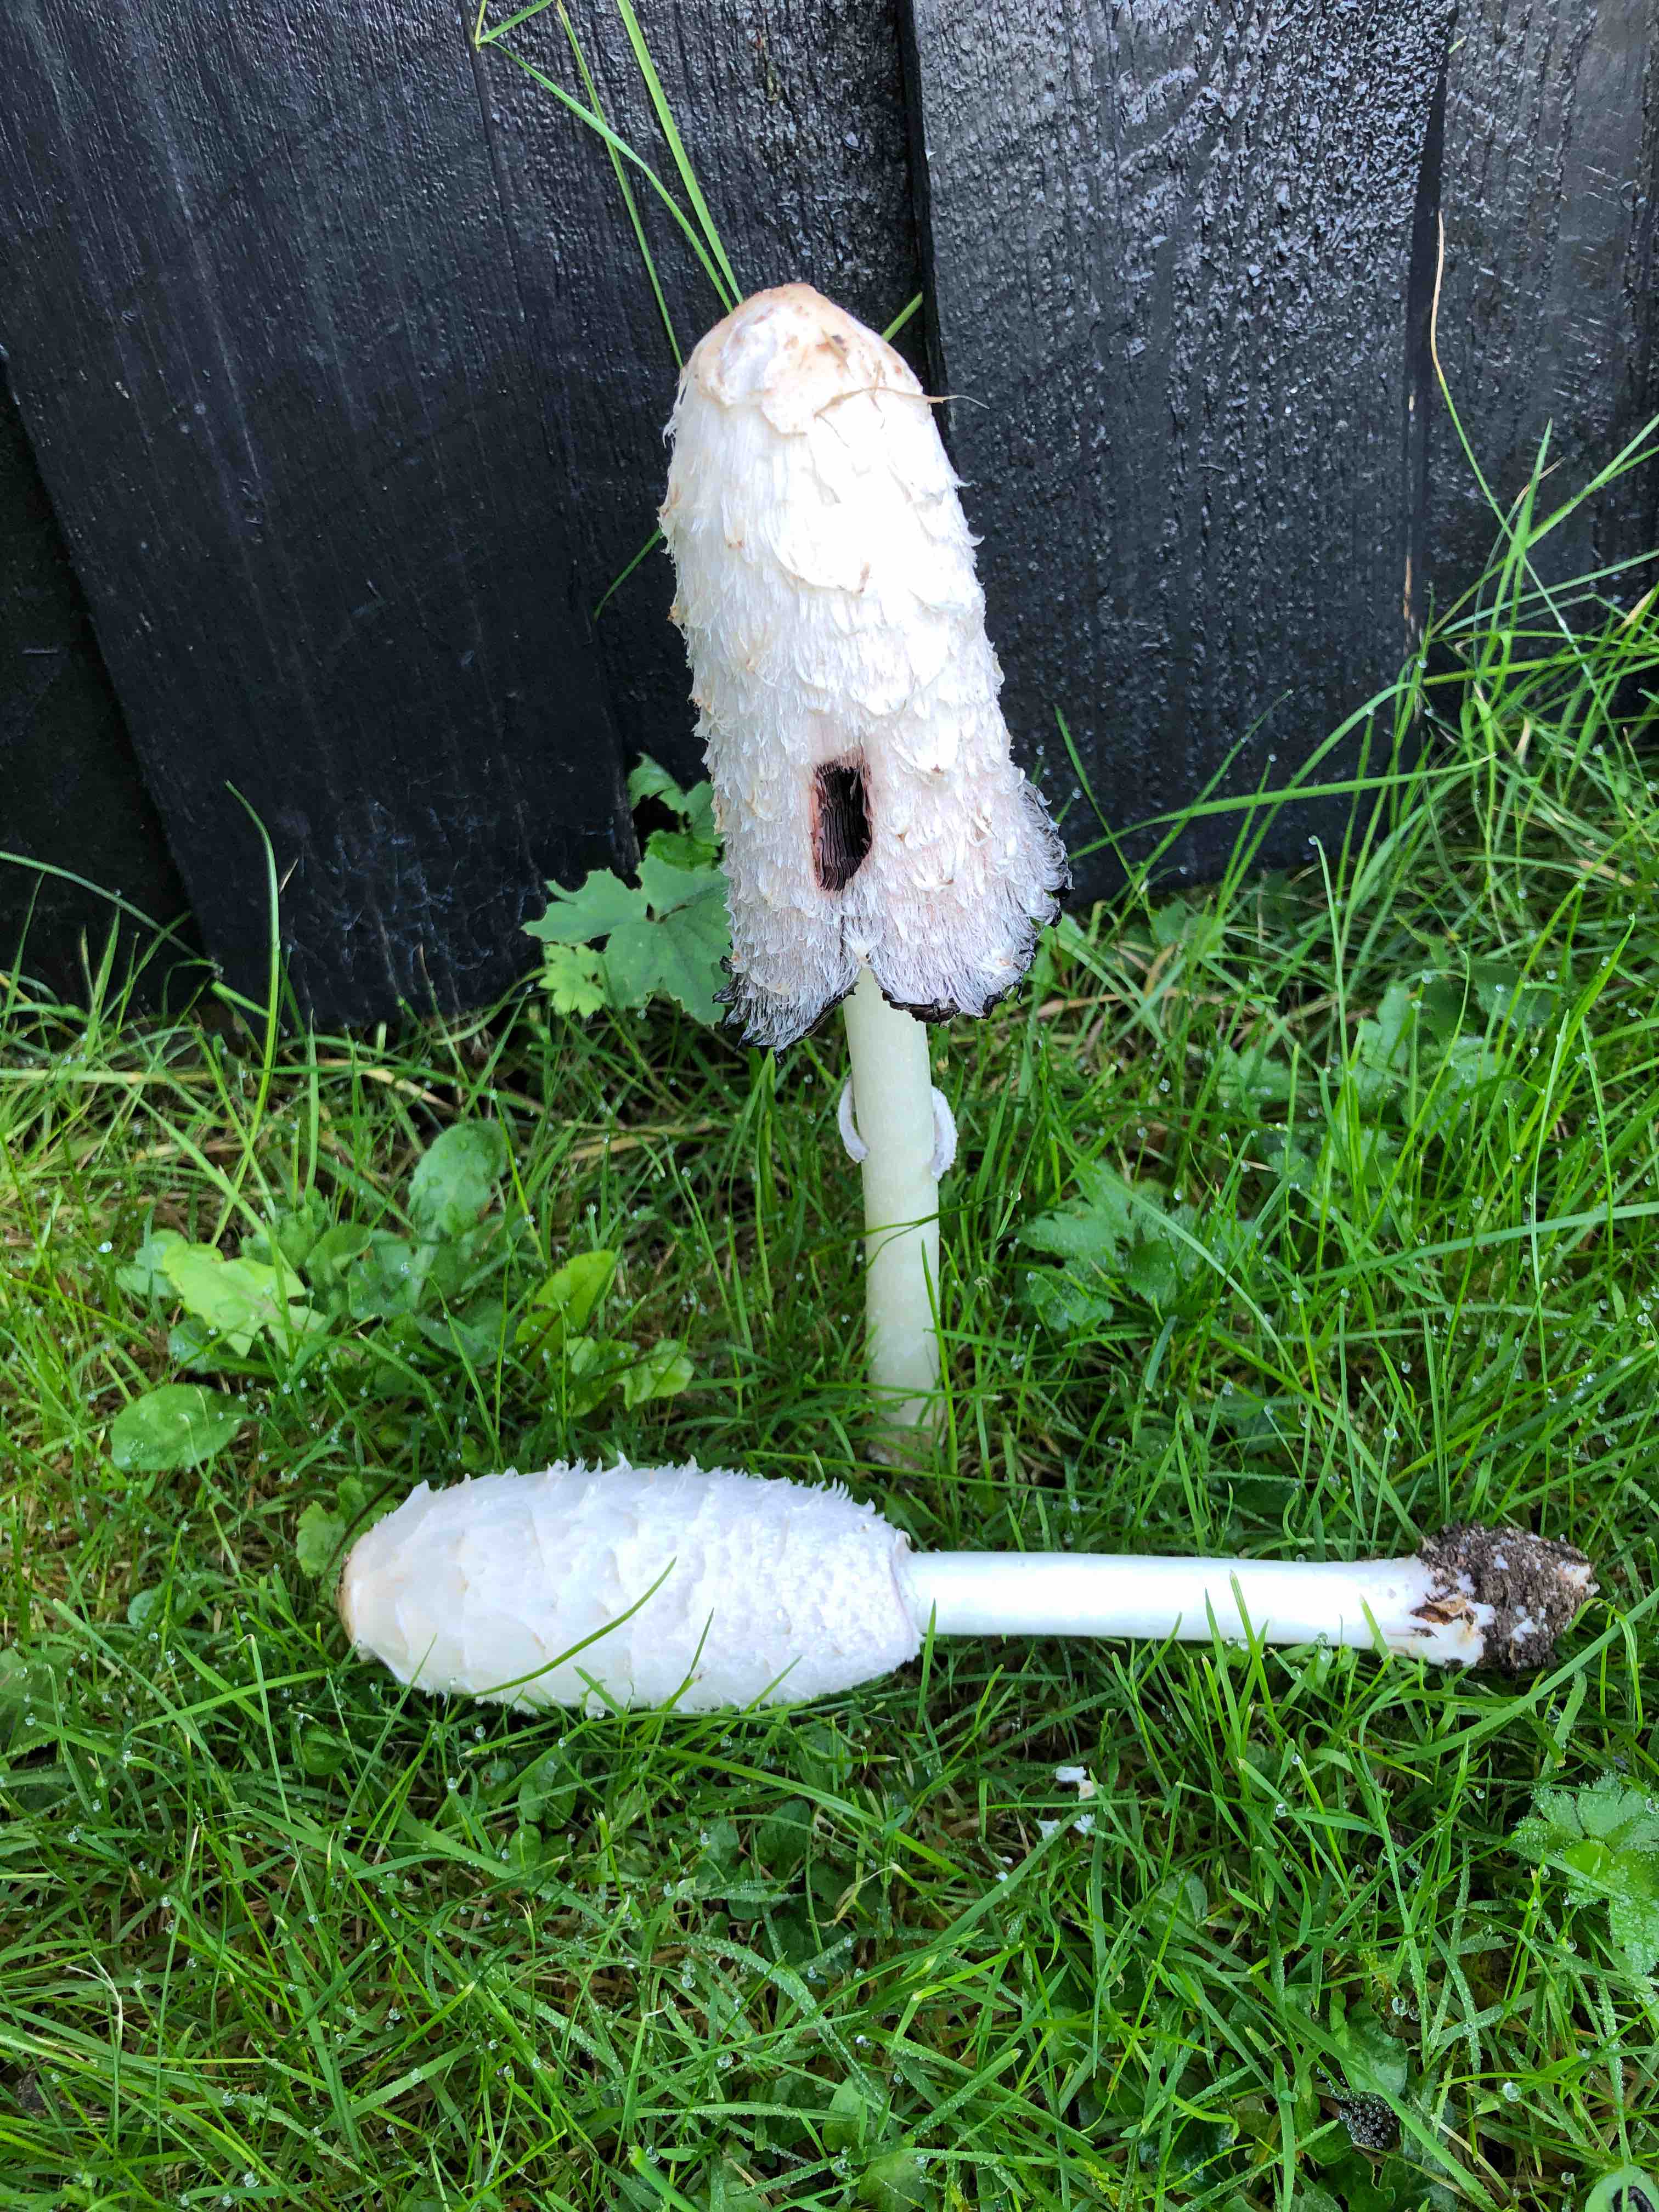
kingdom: Fungi
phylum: Basidiomycota
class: Agaricomycetes
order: Agaricales
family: Agaricaceae
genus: Coprinus
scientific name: Coprinus comatus
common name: stor parykhat
